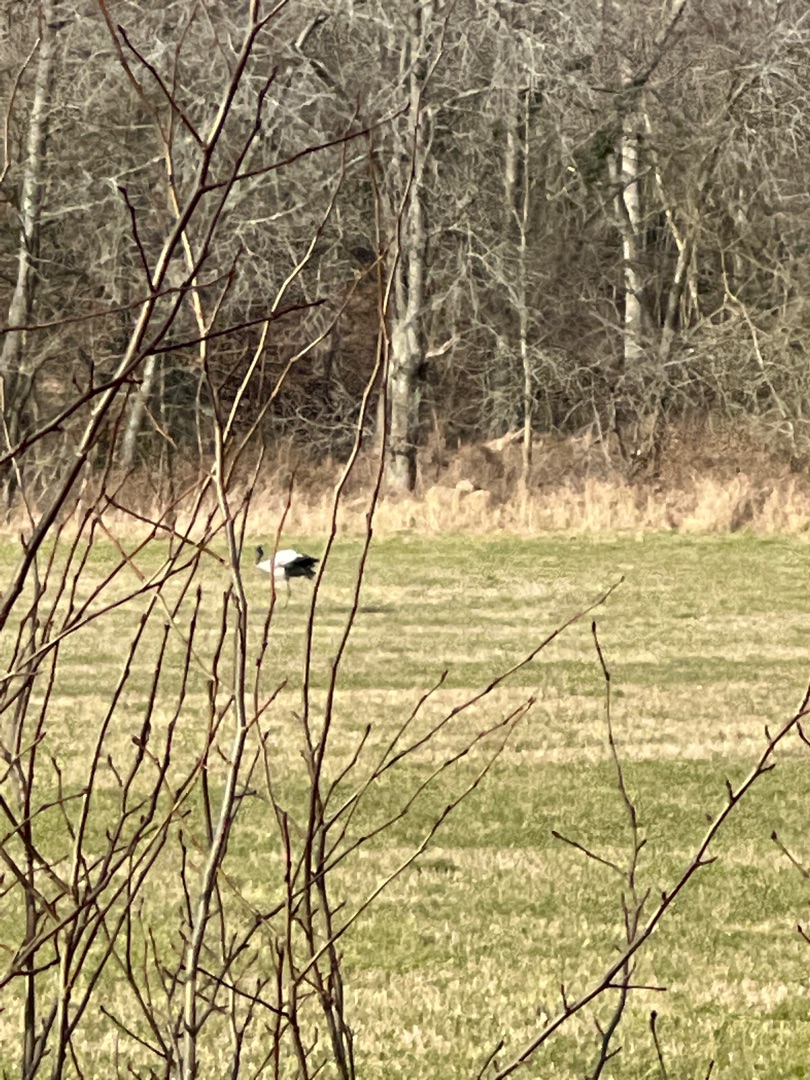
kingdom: Animalia
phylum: Chordata
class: Aves
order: Gruiformes
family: Gruidae
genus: Grus
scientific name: Grus grus
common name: Trane
